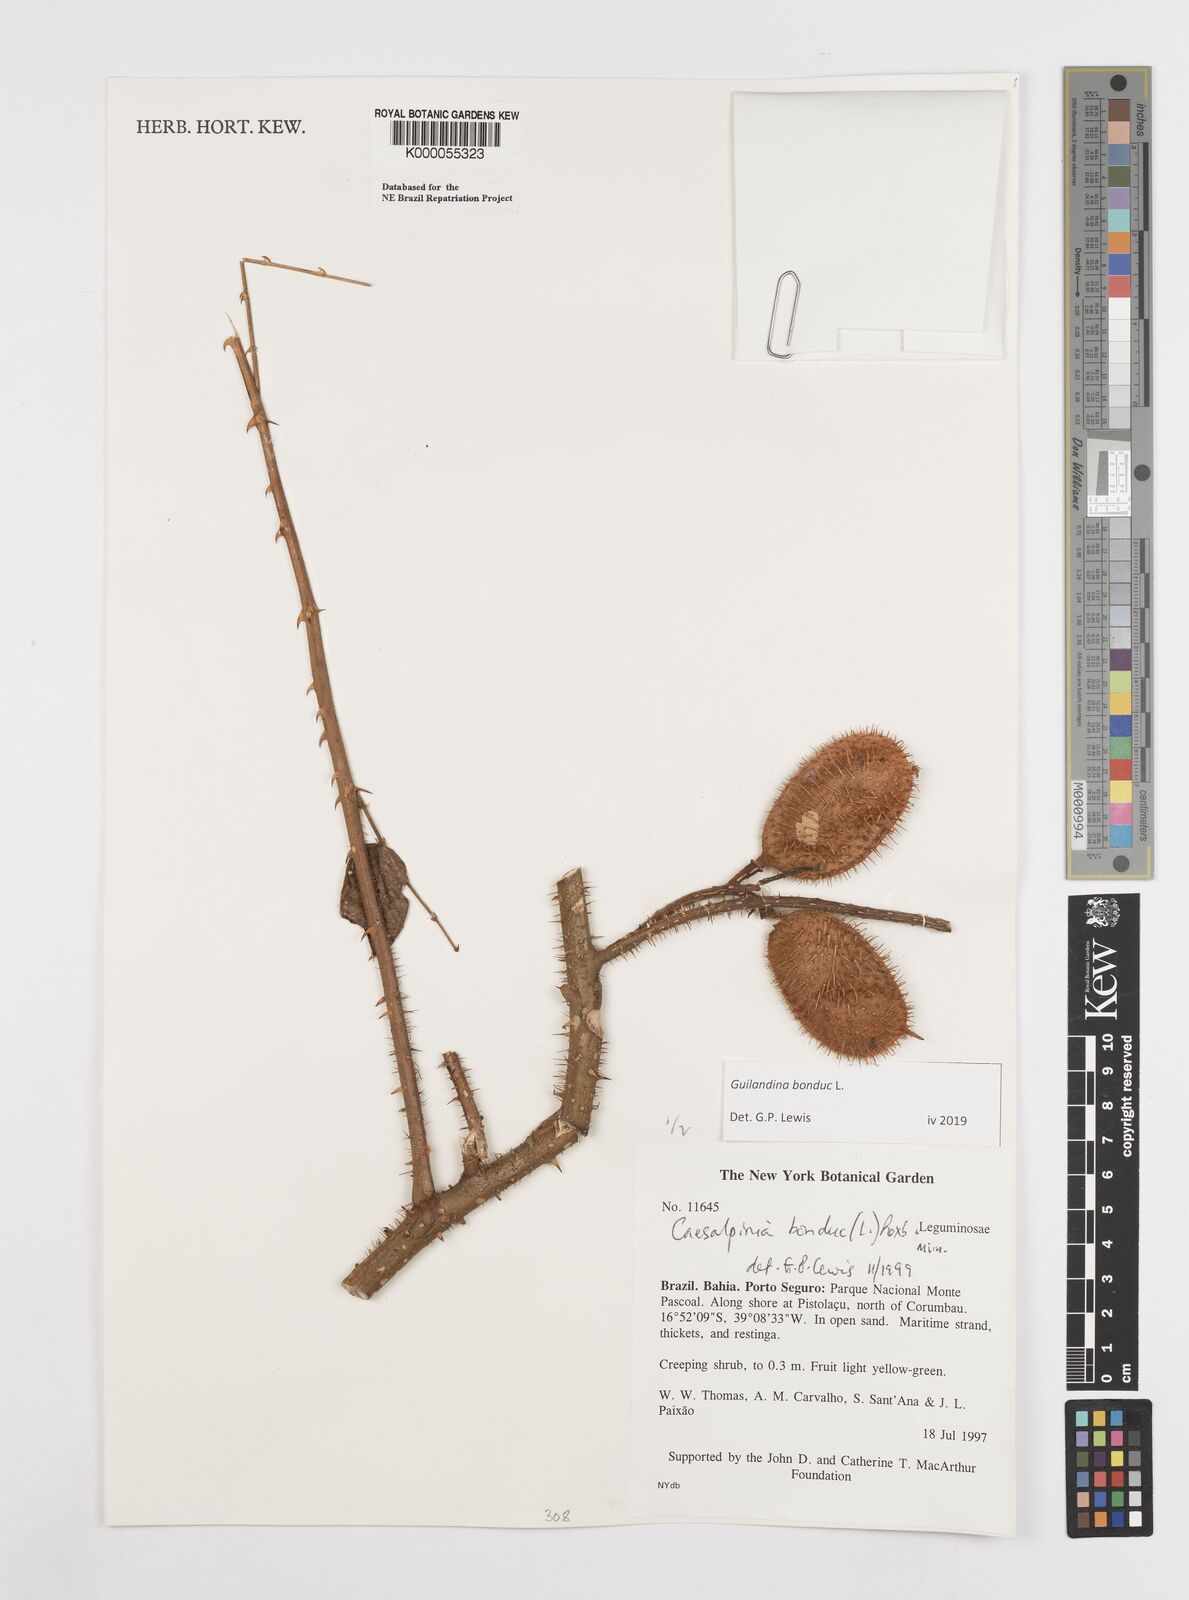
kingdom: Plantae
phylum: Tracheophyta
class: Magnoliopsida
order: Fabales
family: Fabaceae
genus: Guilandina
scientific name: Guilandina bonduc
